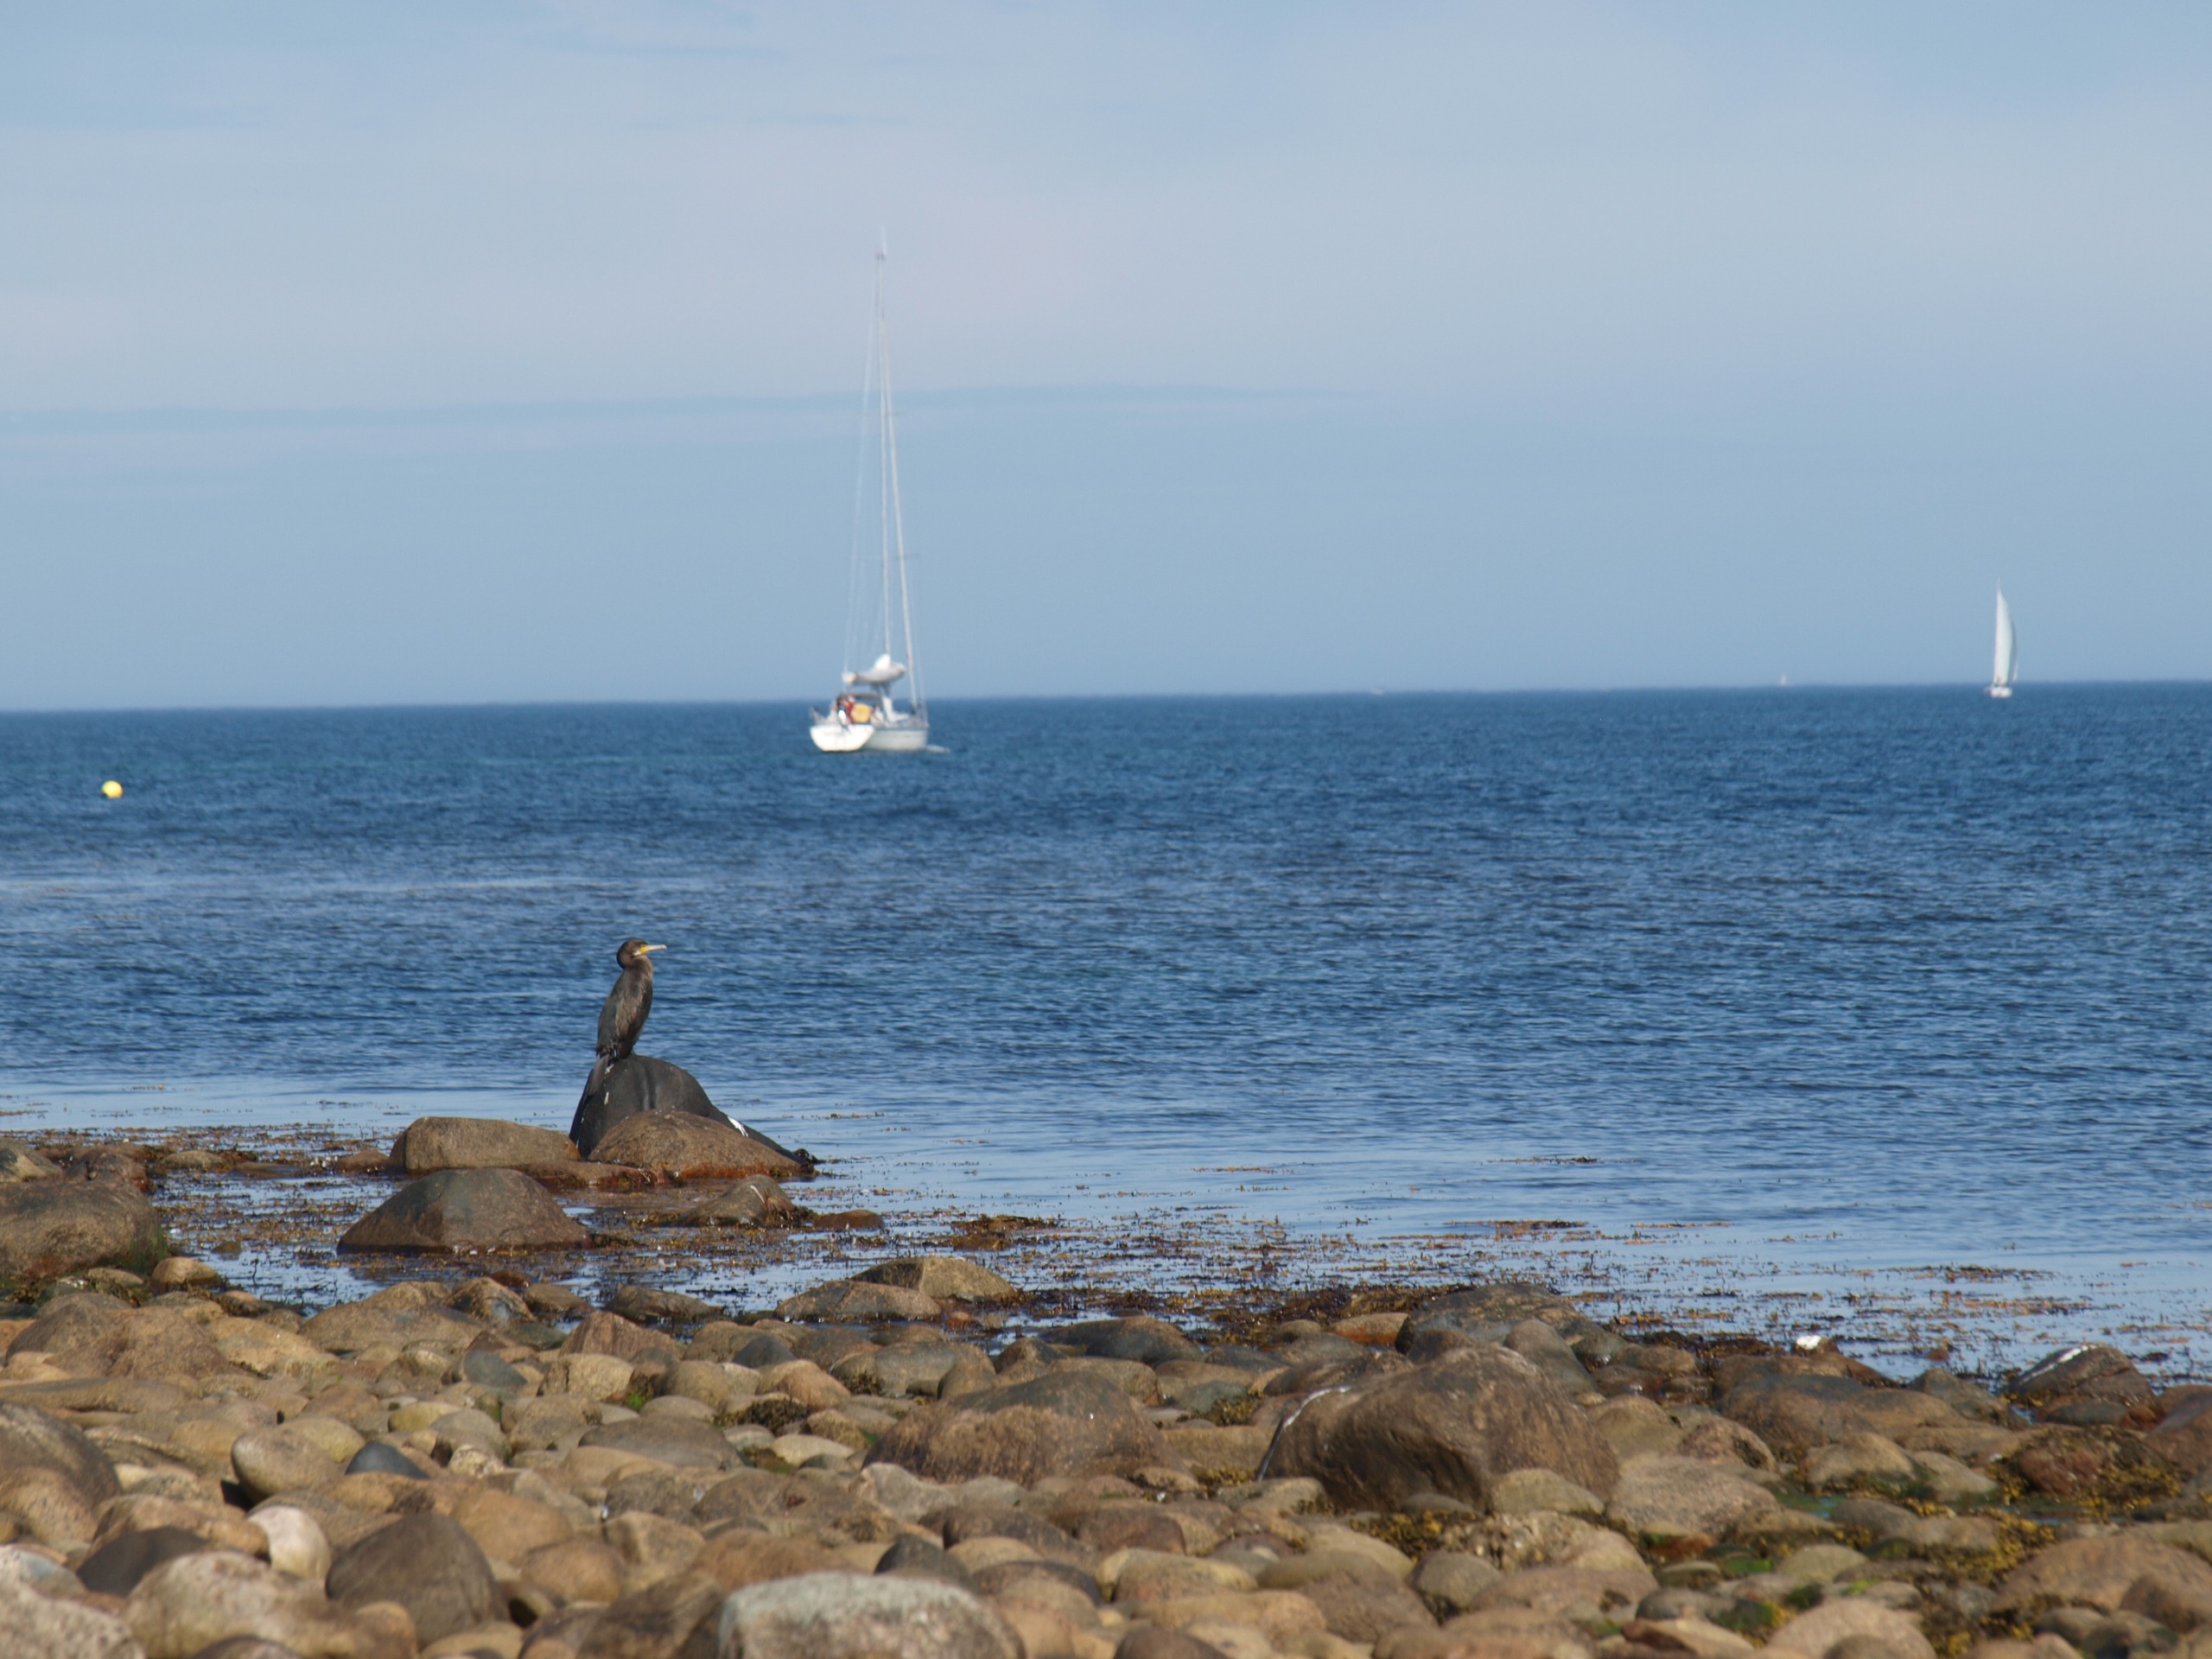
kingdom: Animalia
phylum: Chordata
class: Aves
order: Suliformes
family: Phalacrocoracidae
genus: Phalacrocorax
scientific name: Phalacrocorax carbo
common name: Skarv
